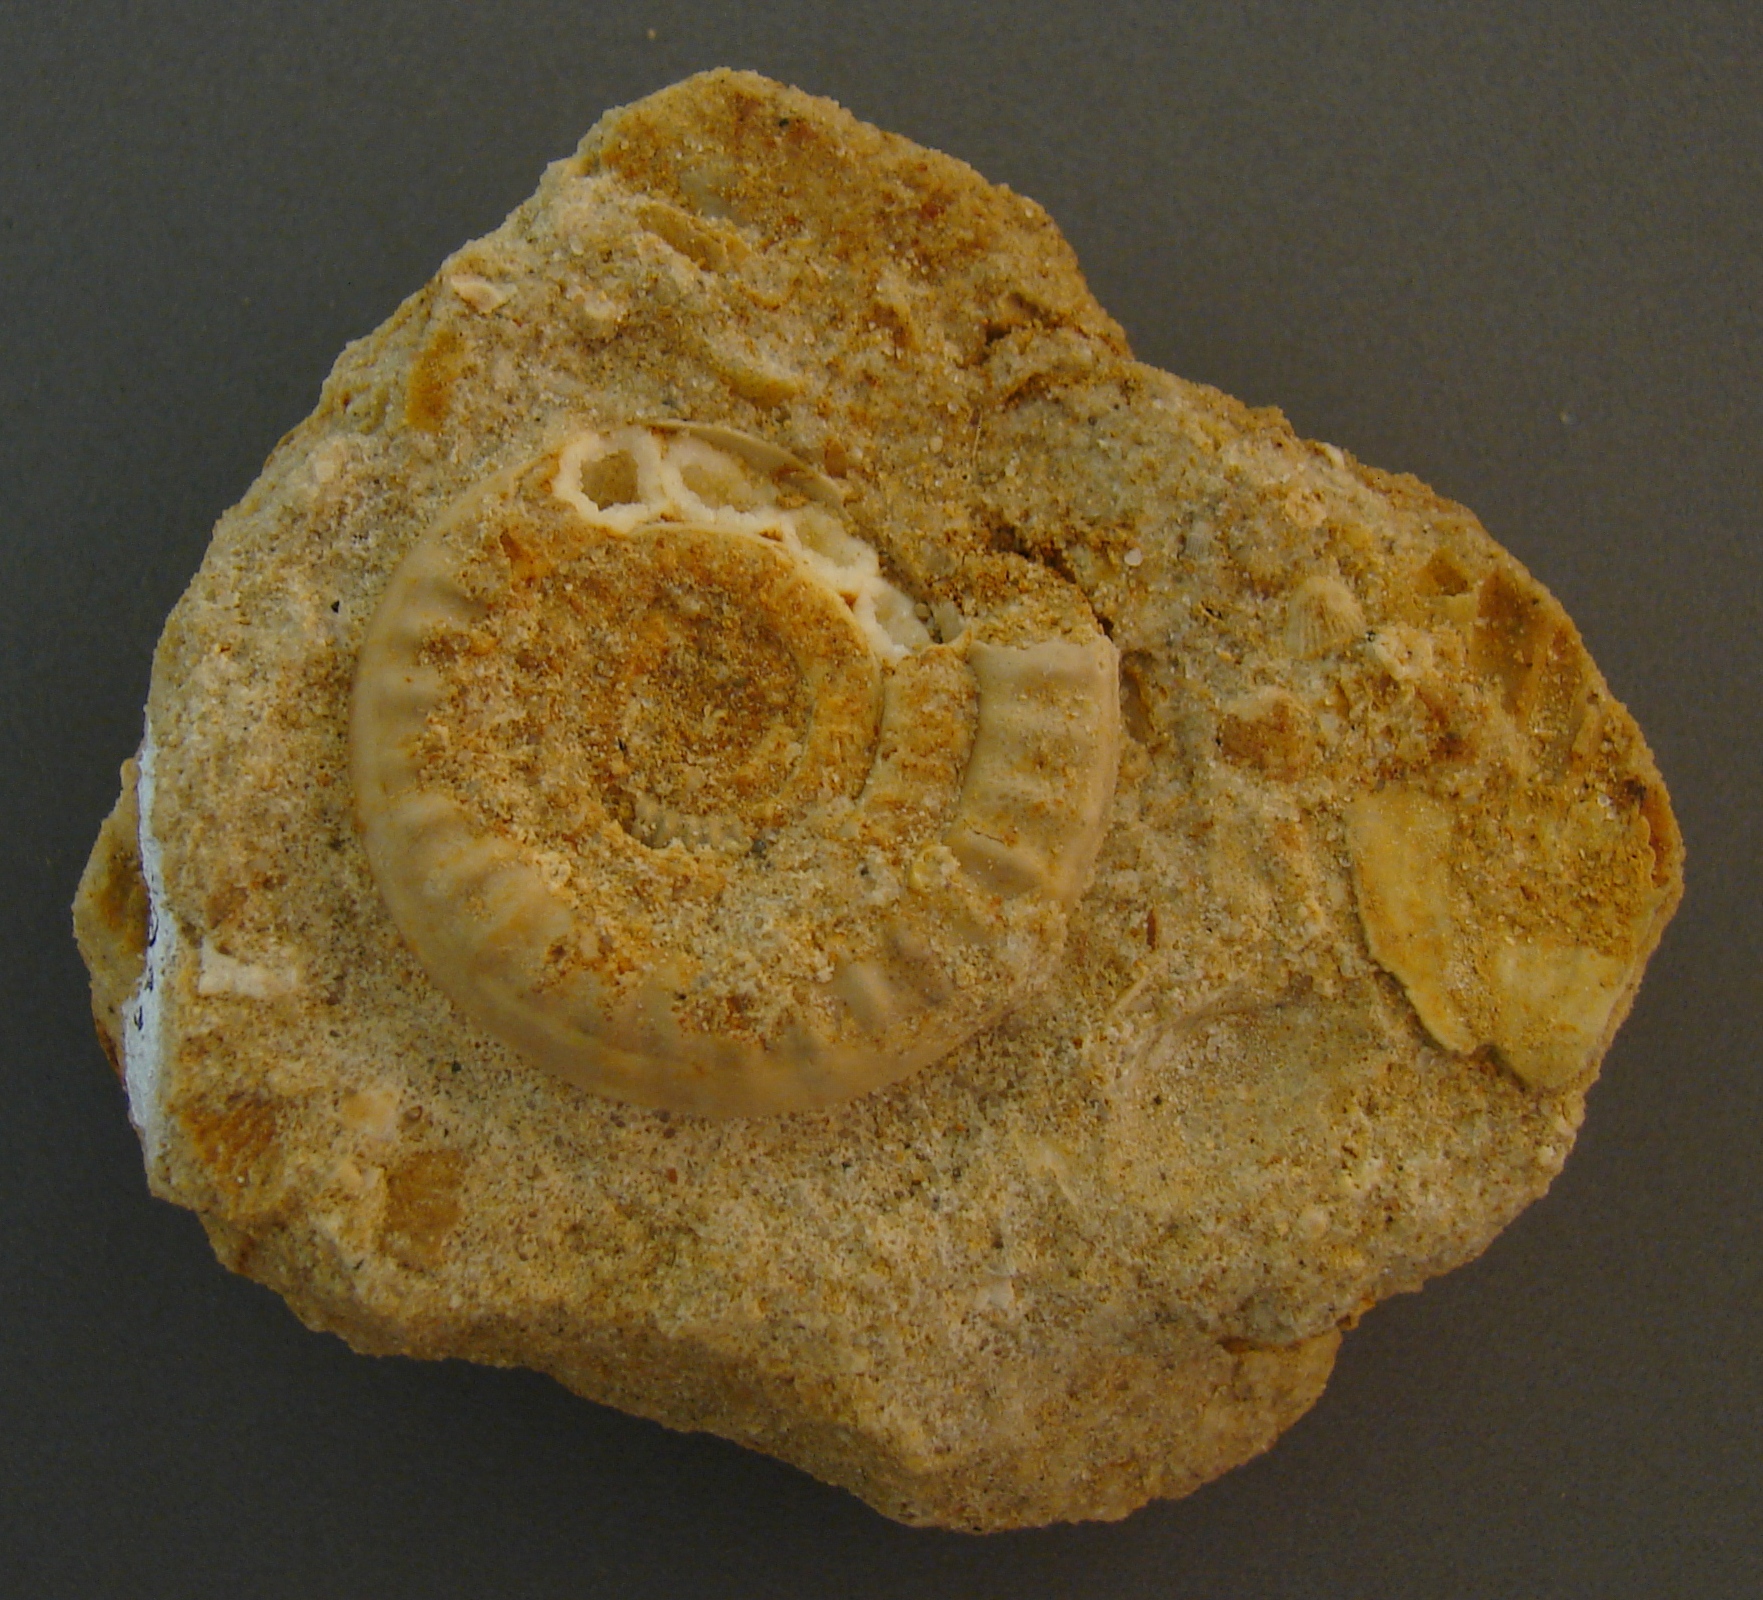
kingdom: Animalia
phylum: Mollusca
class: Cephalopoda
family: Psiloceratidae
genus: Caloceras
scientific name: Caloceras pirondi
